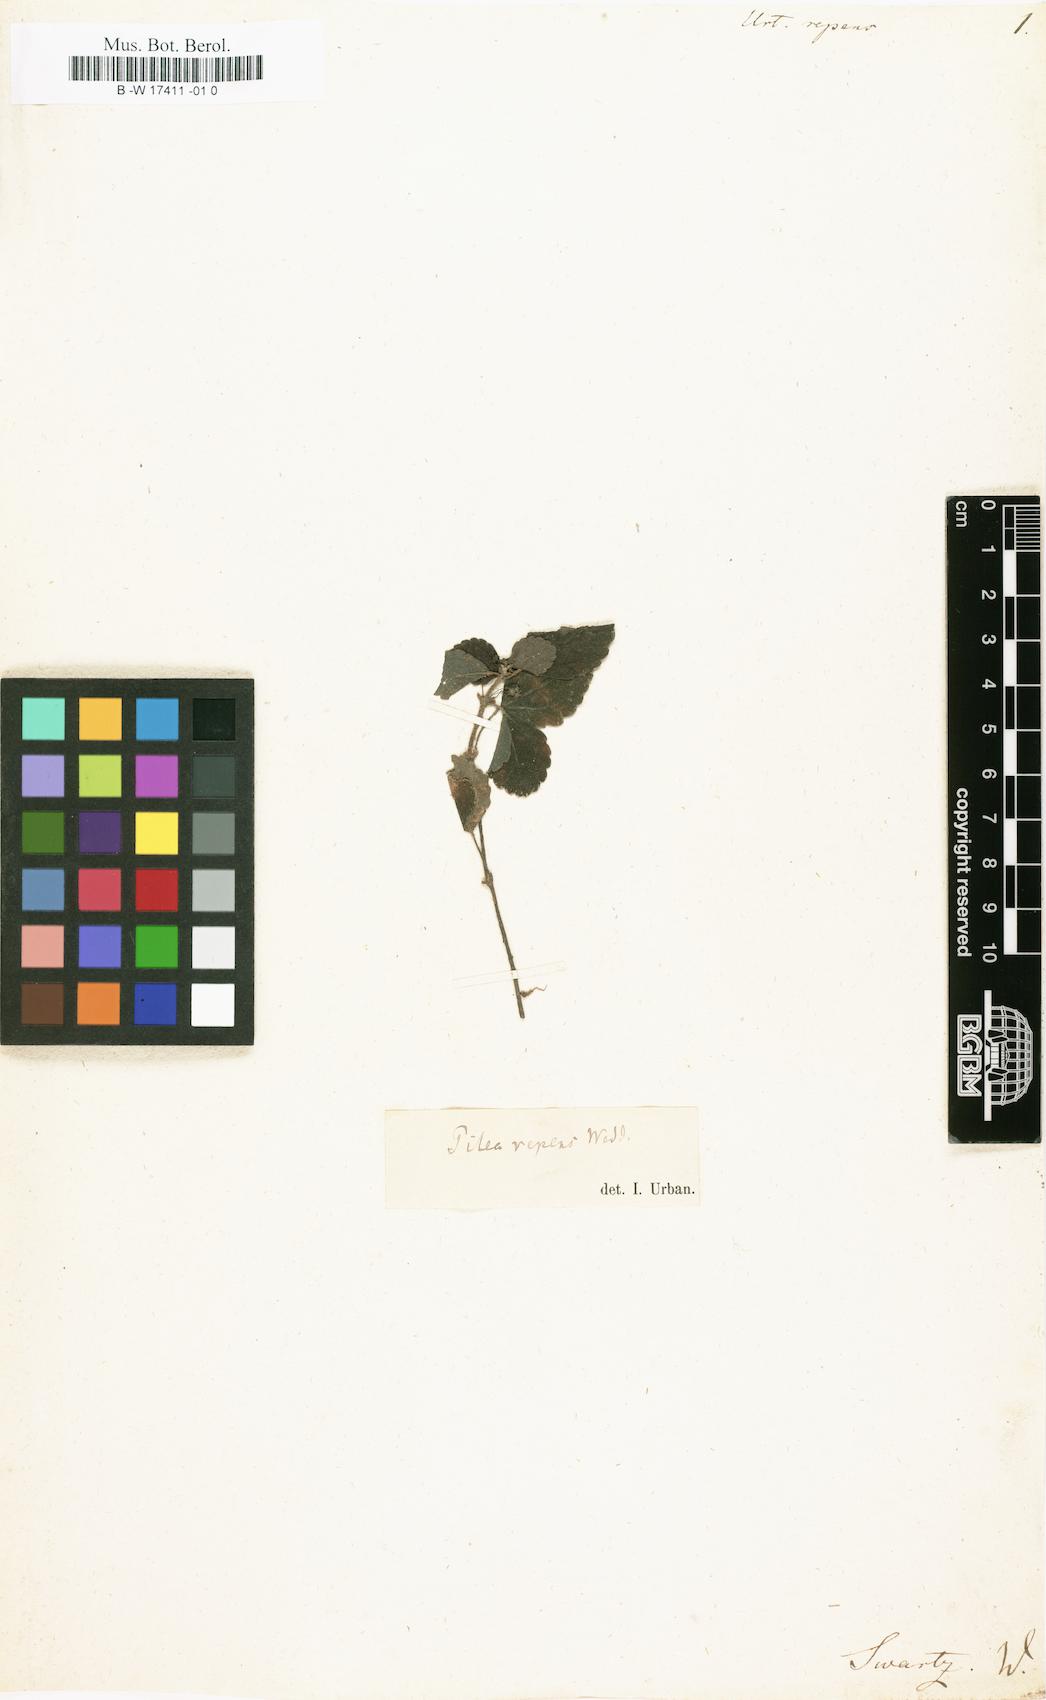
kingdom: Plantae
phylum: Tracheophyta
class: Magnoliopsida
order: Rosales
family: Urticaceae
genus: Pilea
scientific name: Pilea inaequalis
